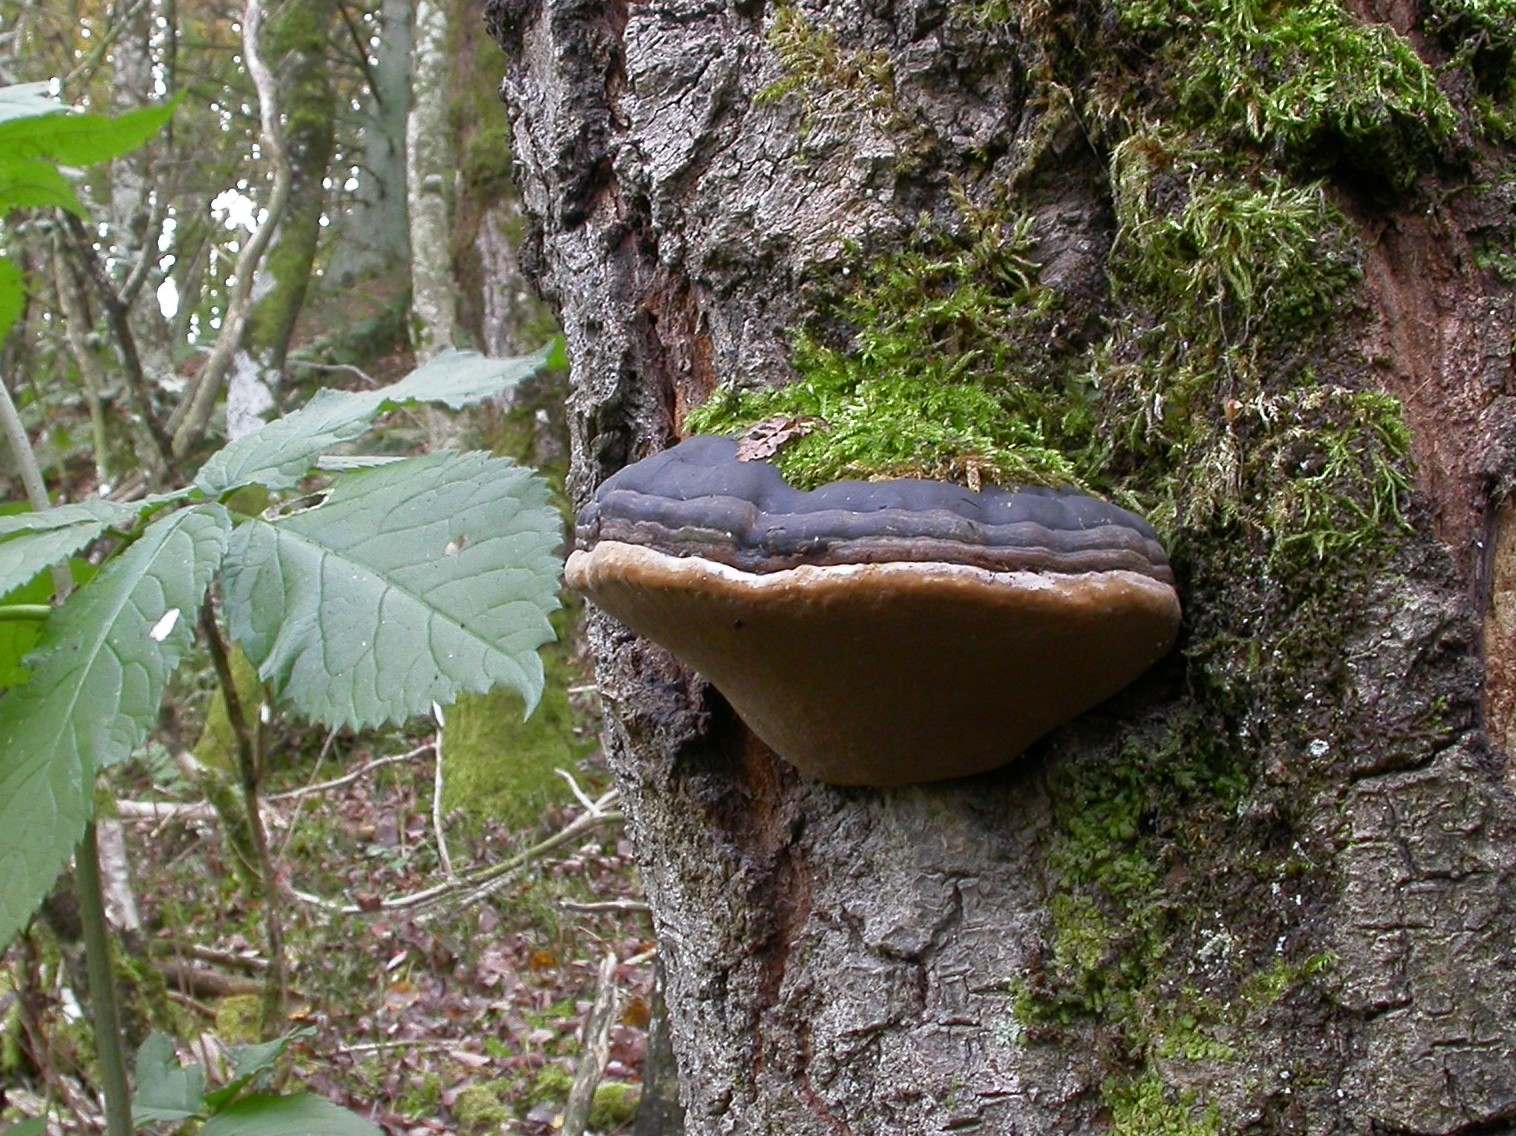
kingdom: Fungi
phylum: Basidiomycota
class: Agaricomycetes
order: Hymenochaetales
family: Hymenochaetaceae
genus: Phellinus
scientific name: Phellinus populicola
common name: poppel-ildporesvamp
